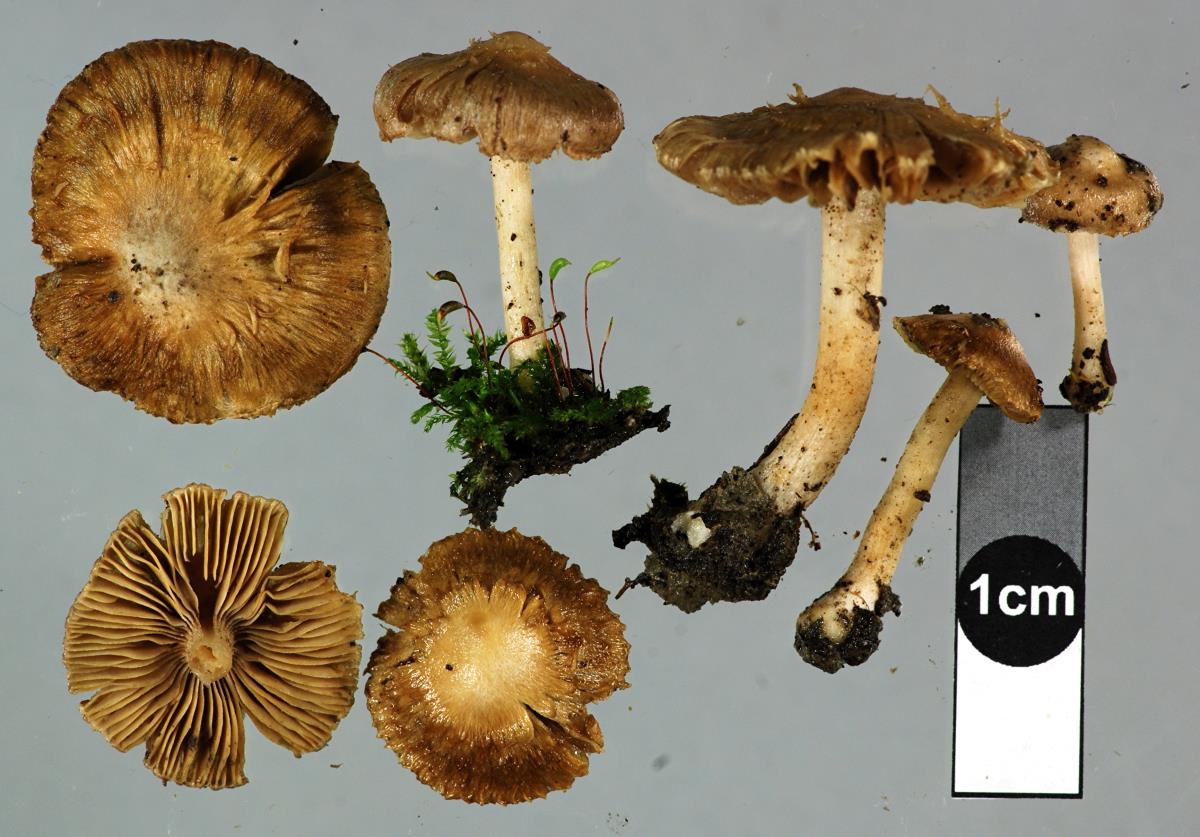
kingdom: Fungi
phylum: Basidiomycota
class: Agaricomycetes
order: Agaricales
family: Inocybaceae
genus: Inocybe
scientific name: Inocybe sindonia
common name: Beige fibrecap
